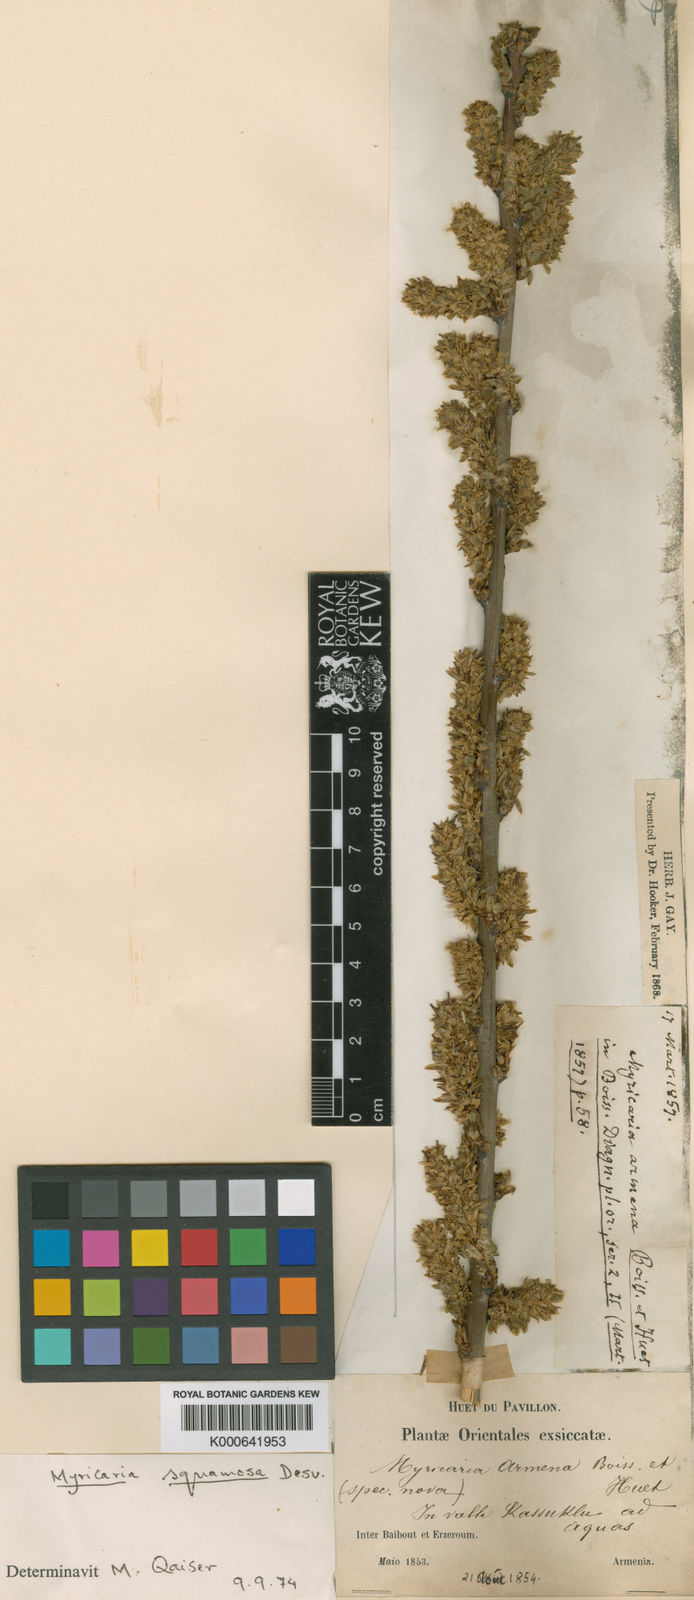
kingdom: Plantae
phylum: Tracheophyta
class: Magnoliopsida
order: Caryophyllales
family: Tamaricaceae
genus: Myricaria
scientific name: Myricaria squamosa
